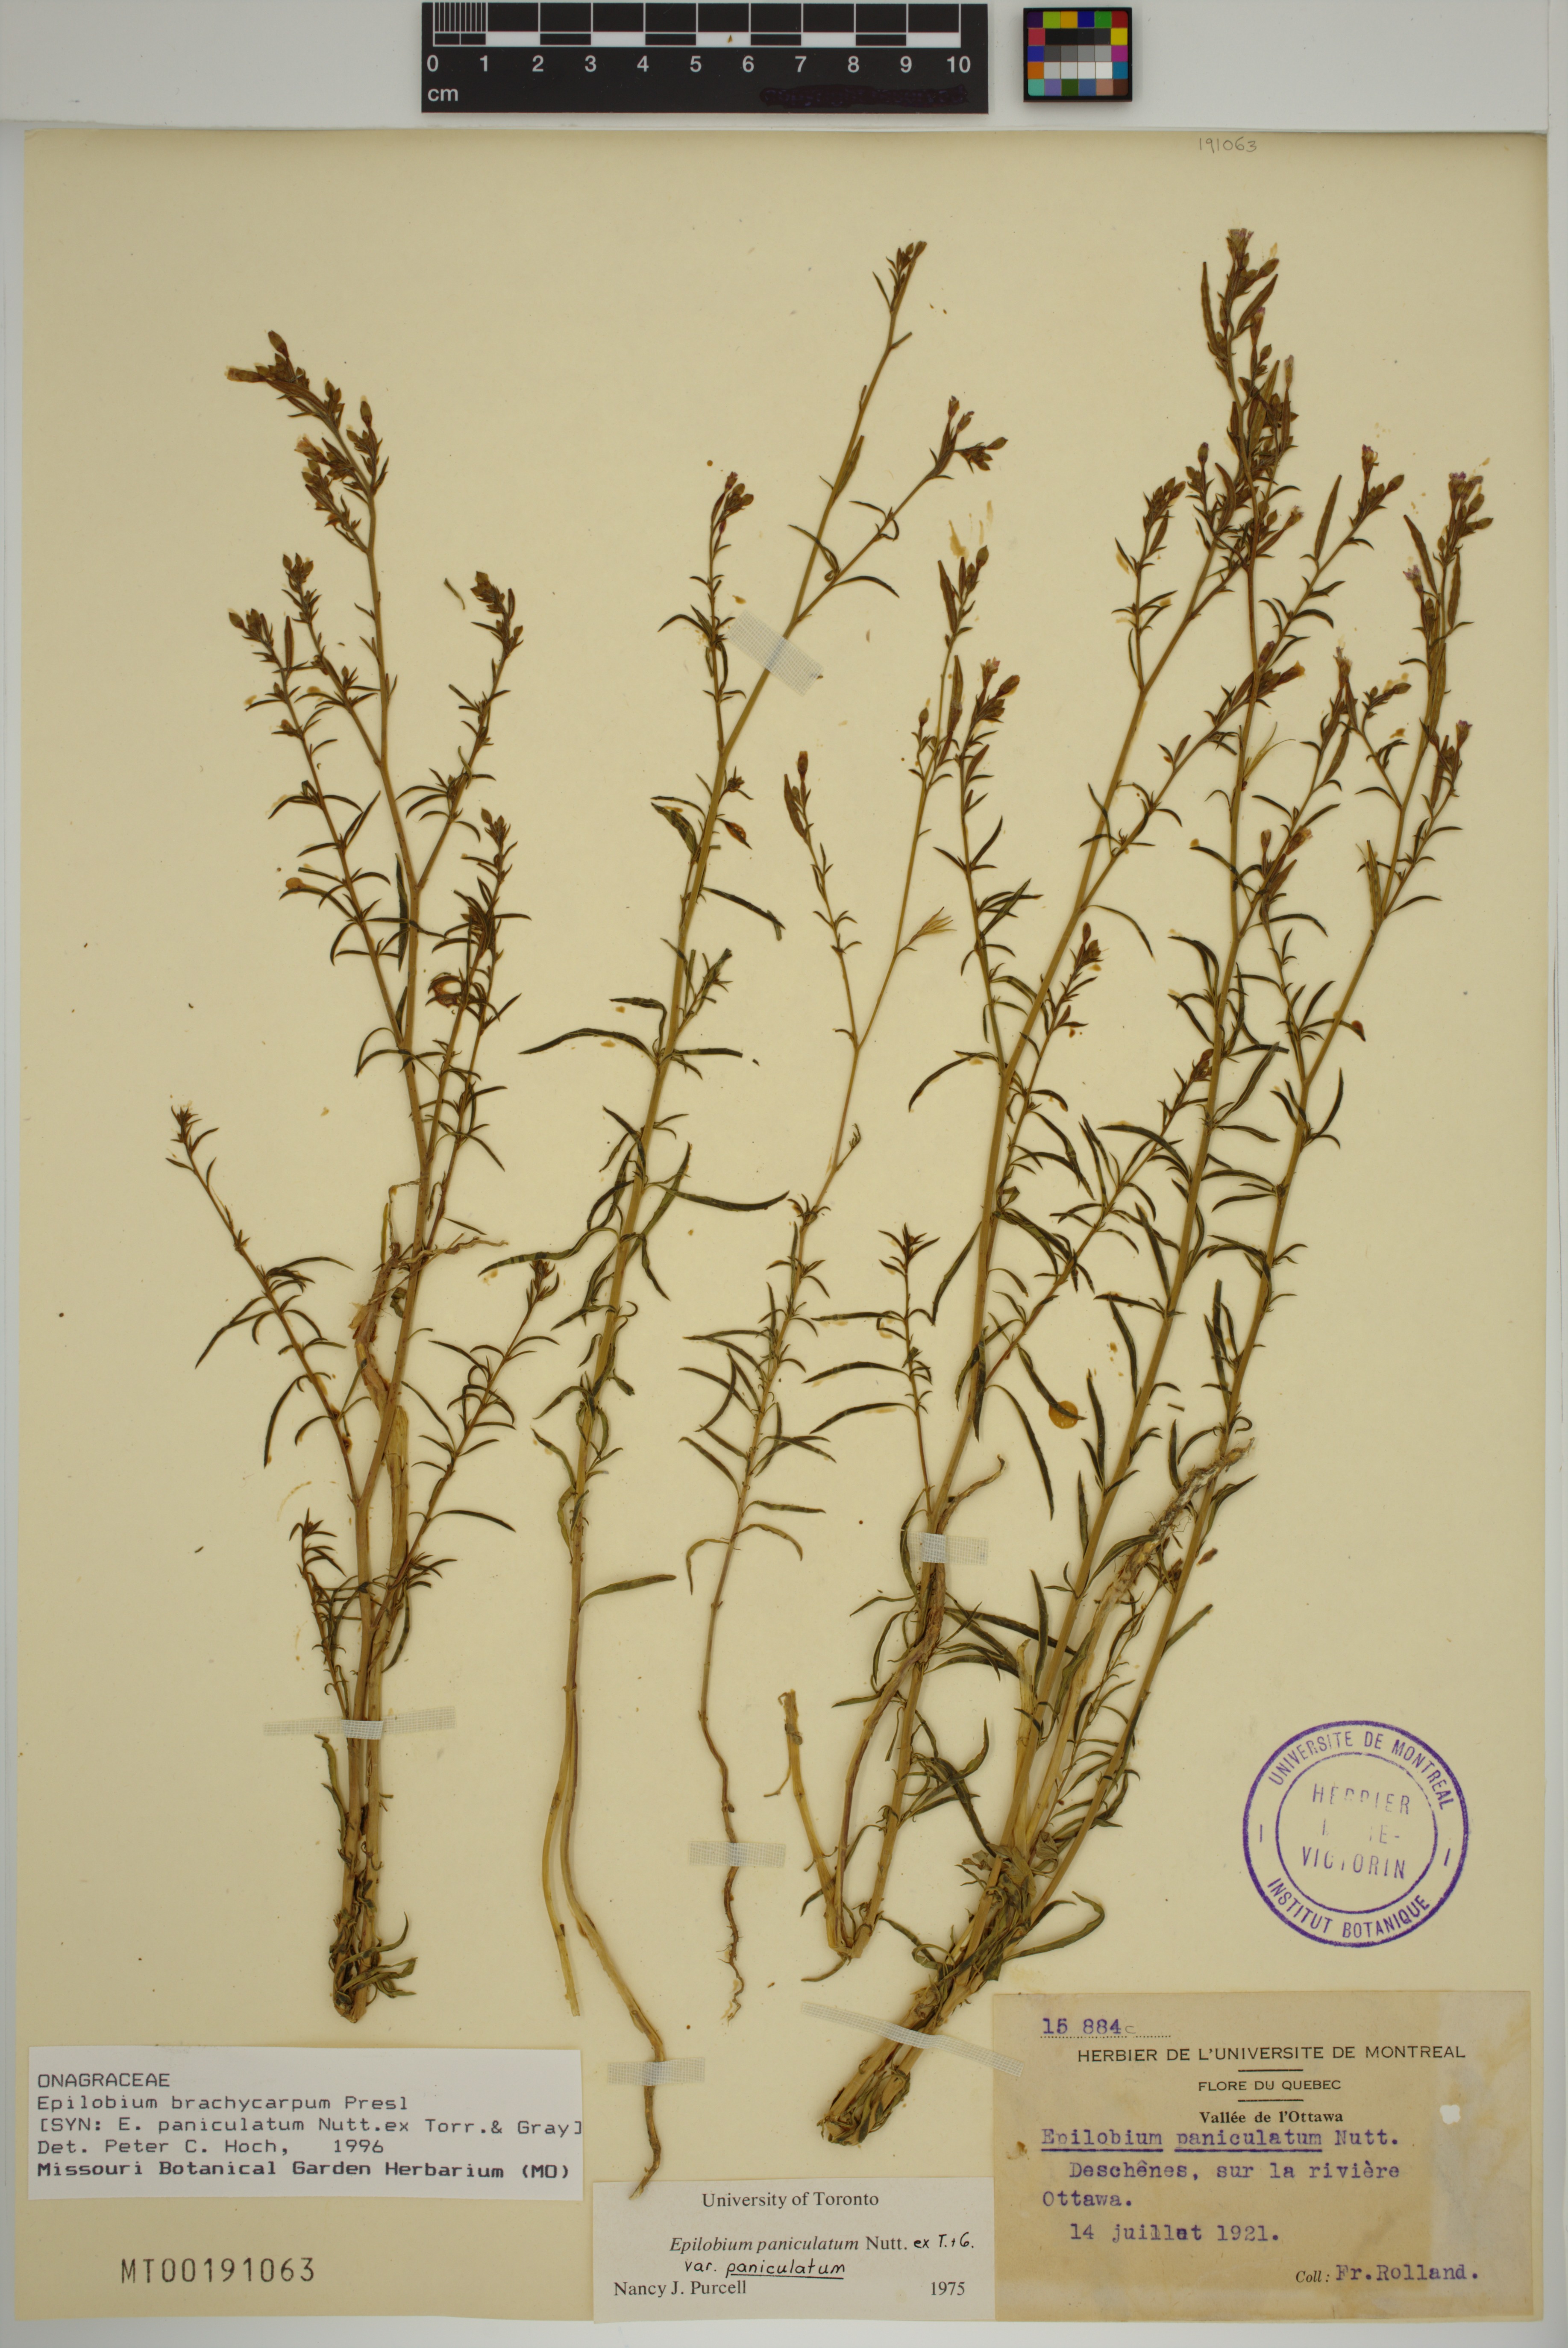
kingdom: Plantae
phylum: Tracheophyta
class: Magnoliopsida
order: Myrtales
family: Onagraceae
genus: Epilobium
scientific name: Epilobium brachycarpum
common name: Annual willowherb
